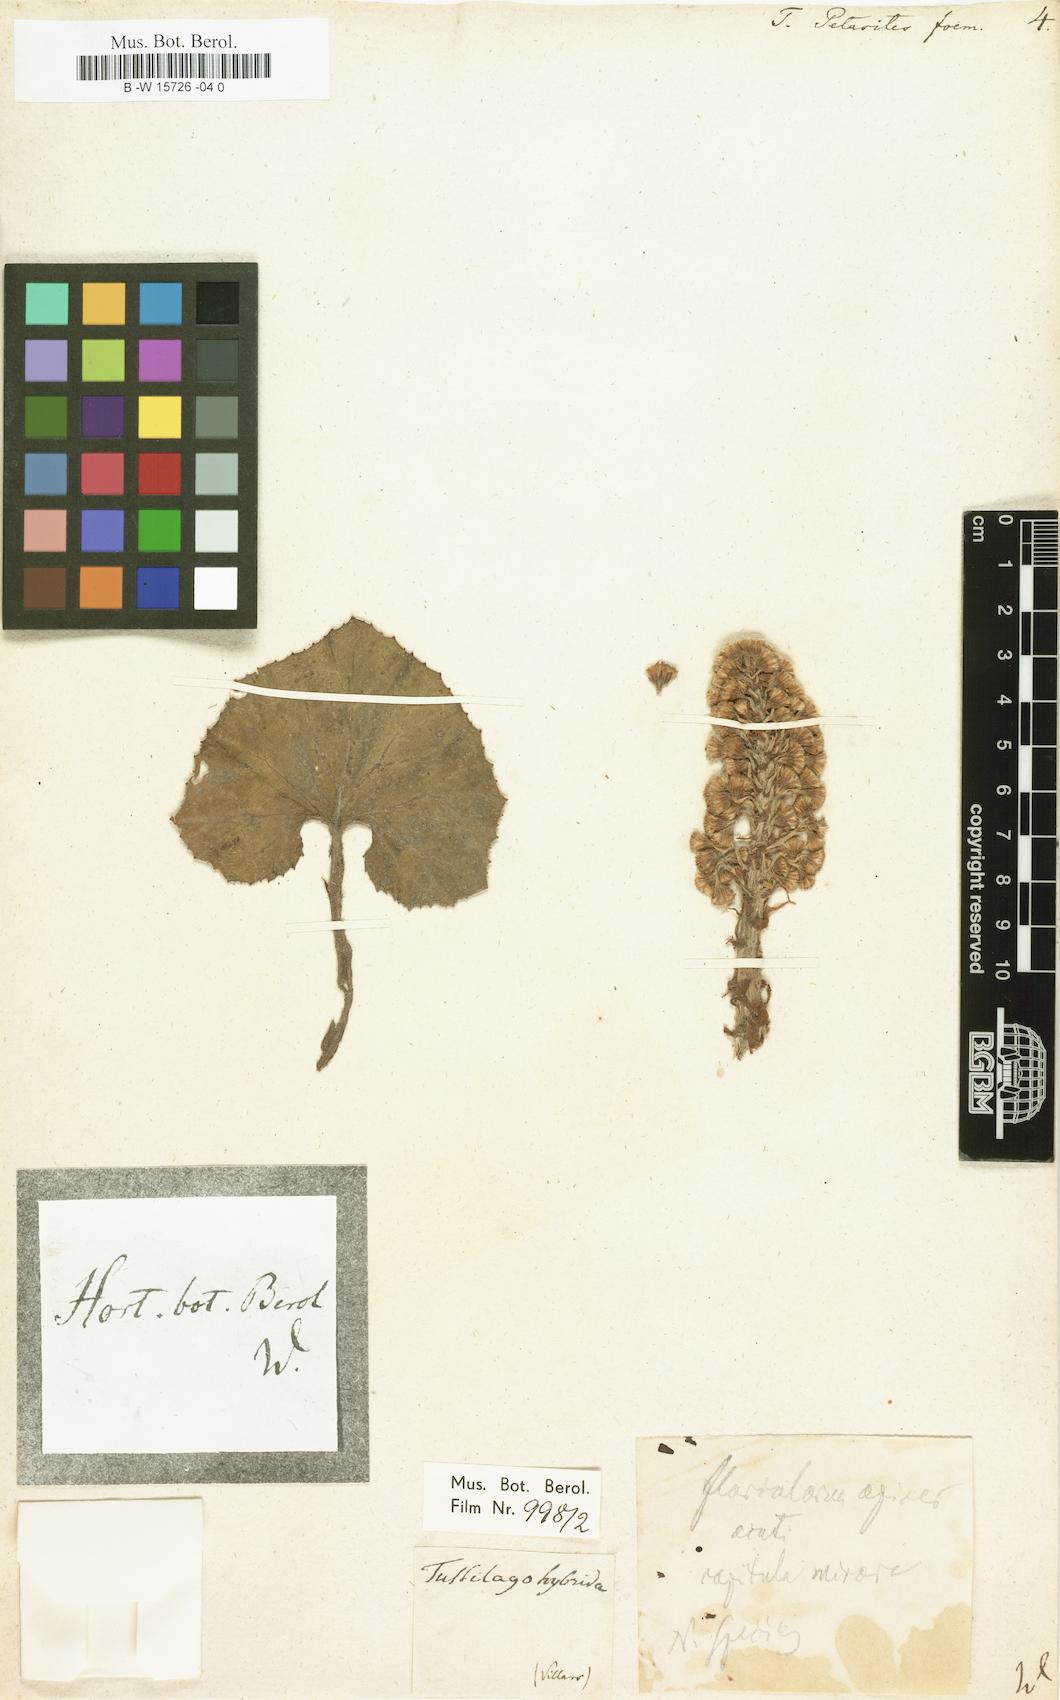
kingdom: Plantae
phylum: Tracheophyta
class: Magnoliopsida
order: Asterales
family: Asteraceae
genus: Petasites
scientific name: Petasites
